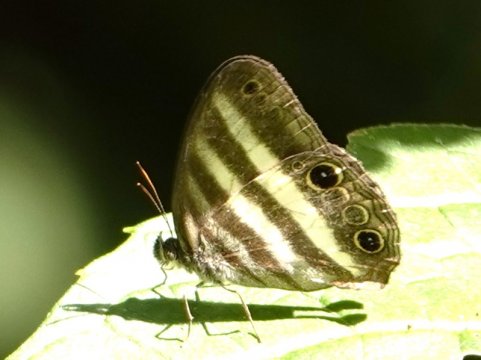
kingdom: Animalia
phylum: Arthropoda
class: Insecta
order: Lepidoptera
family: Nymphalidae
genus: Pareuptychia
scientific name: Pareuptychia hesione
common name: White Satyr
